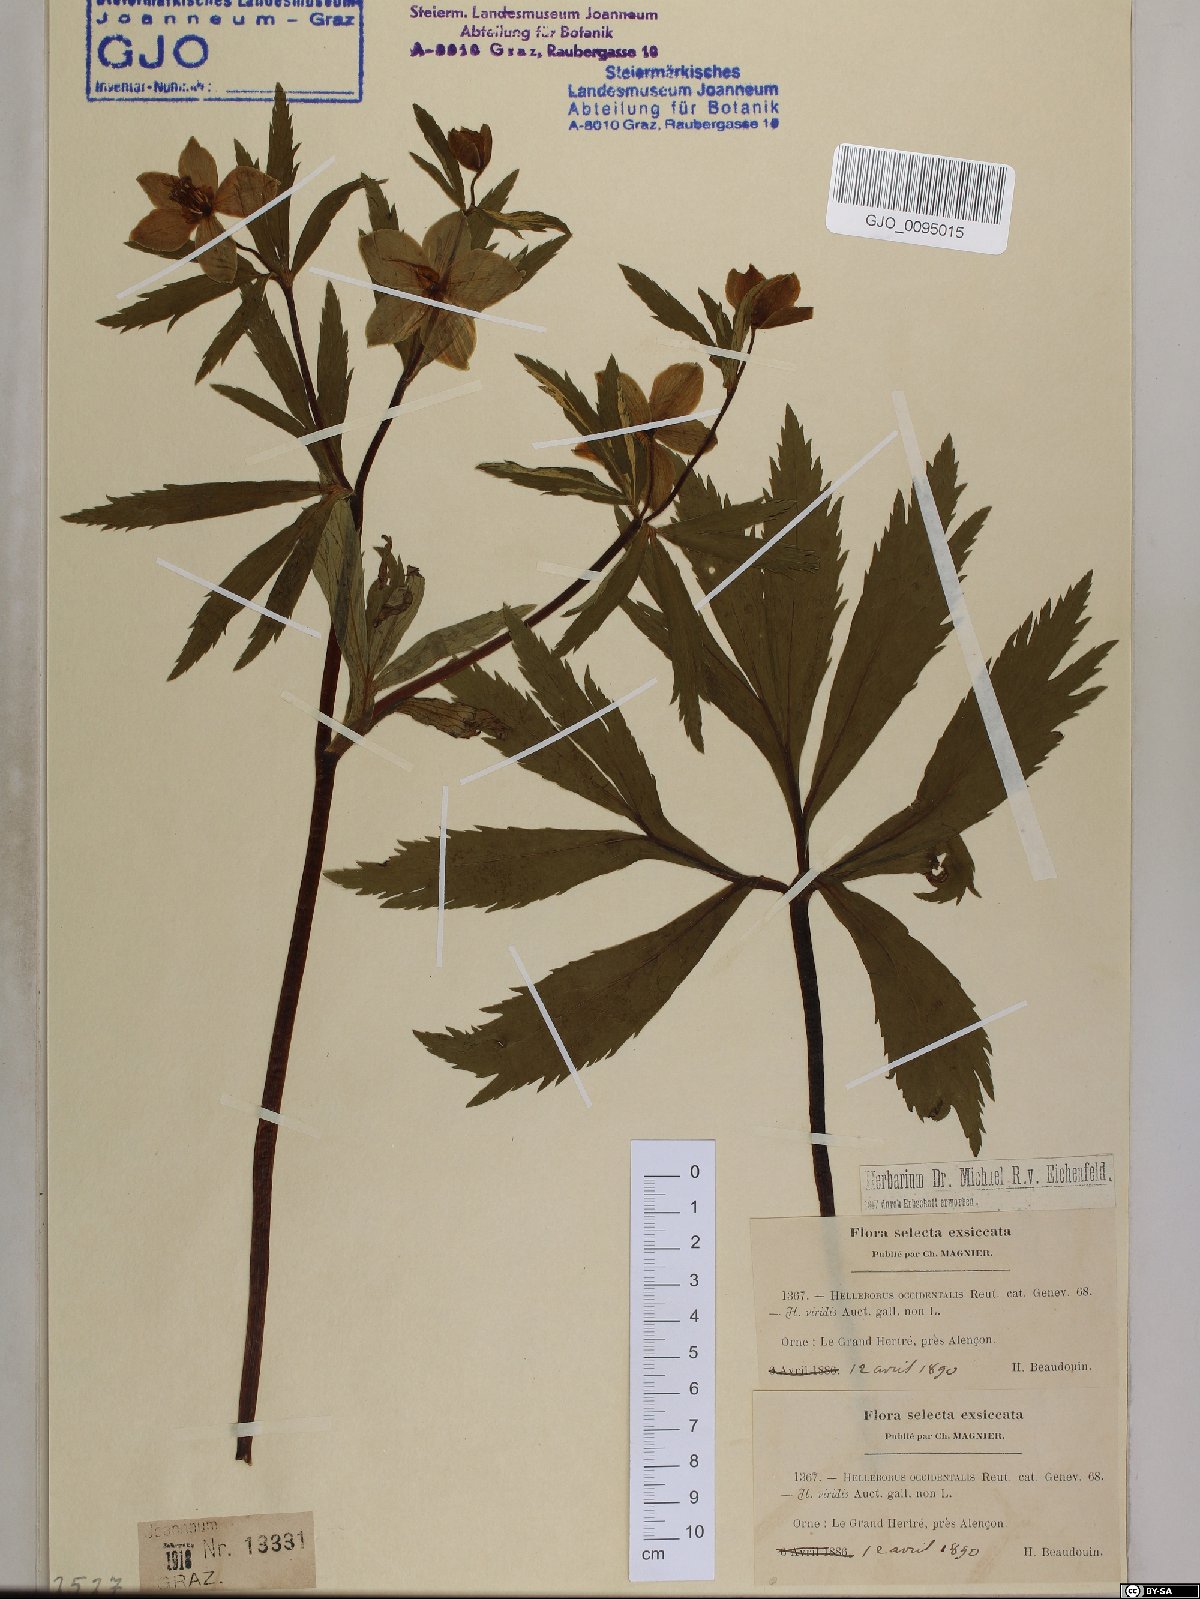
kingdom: Plantae
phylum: Tracheophyta
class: Magnoliopsida
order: Ranunculales
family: Ranunculaceae
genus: Helleborus
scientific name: Helleborus viridis
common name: Green hellebore
